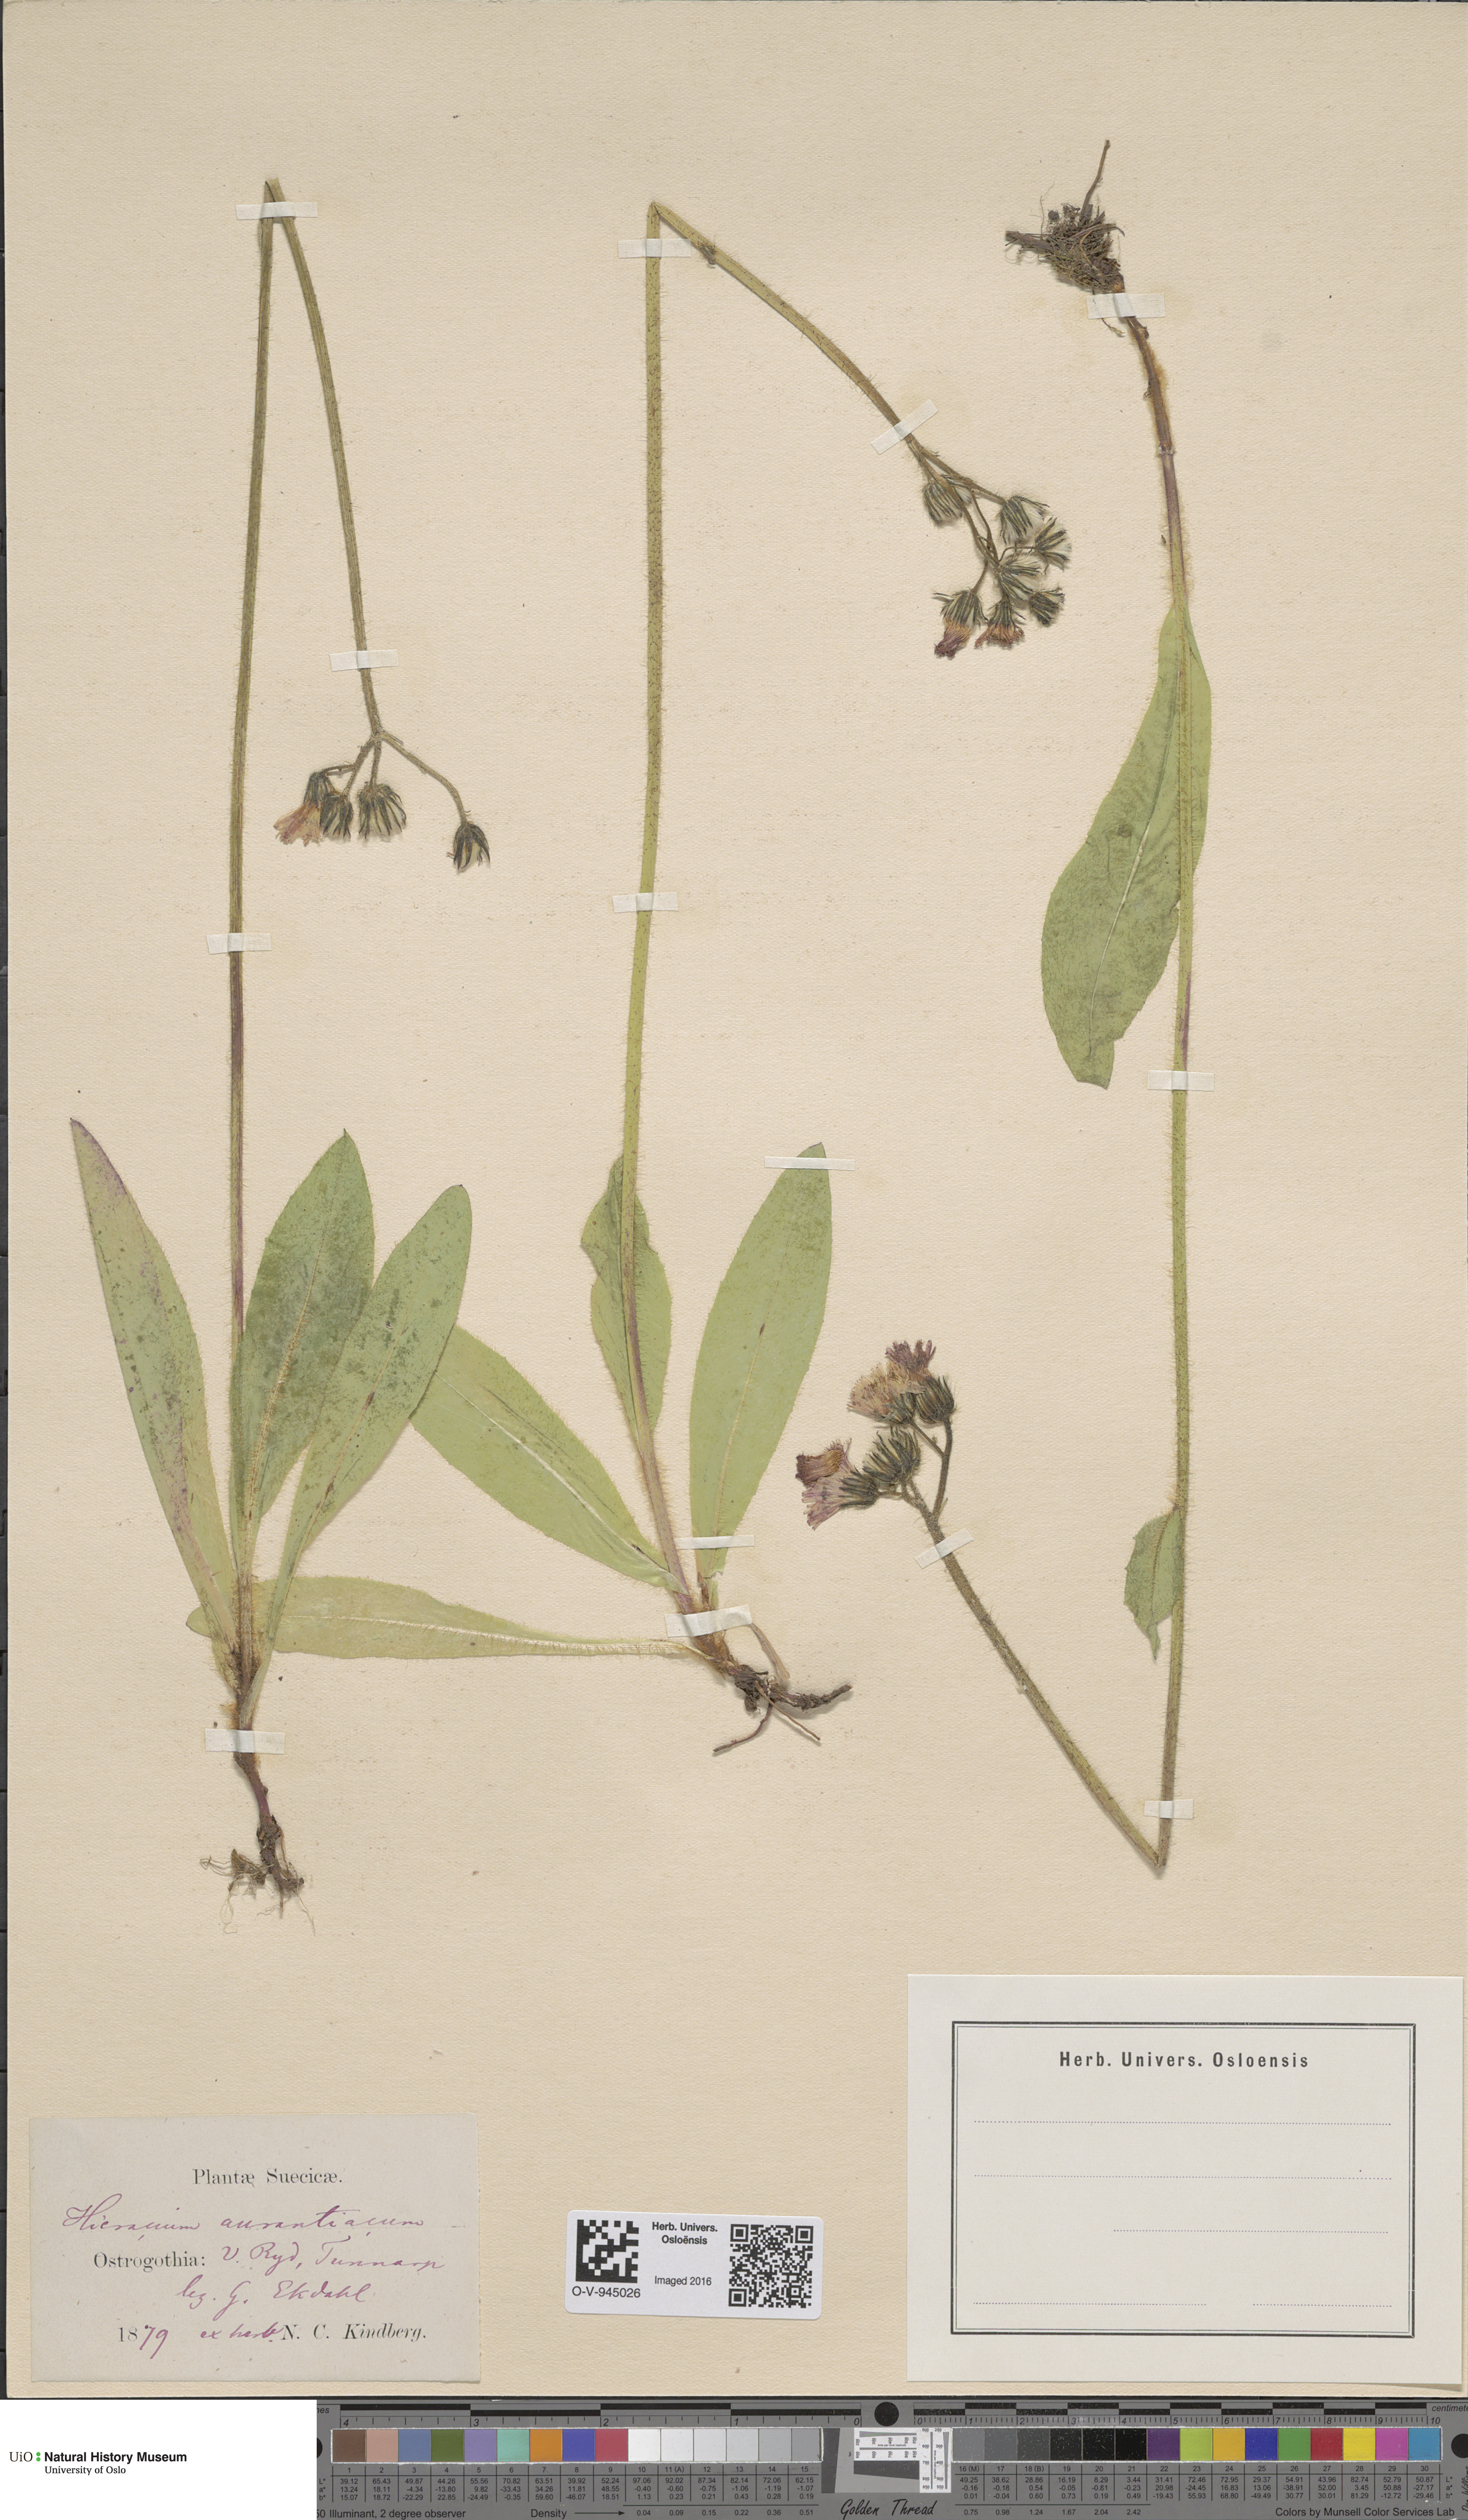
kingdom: Plantae
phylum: Tracheophyta
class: Magnoliopsida
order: Asterales
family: Asteraceae
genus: Pilosella
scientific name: Pilosella aurantiaca
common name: Fox-and-cubs
